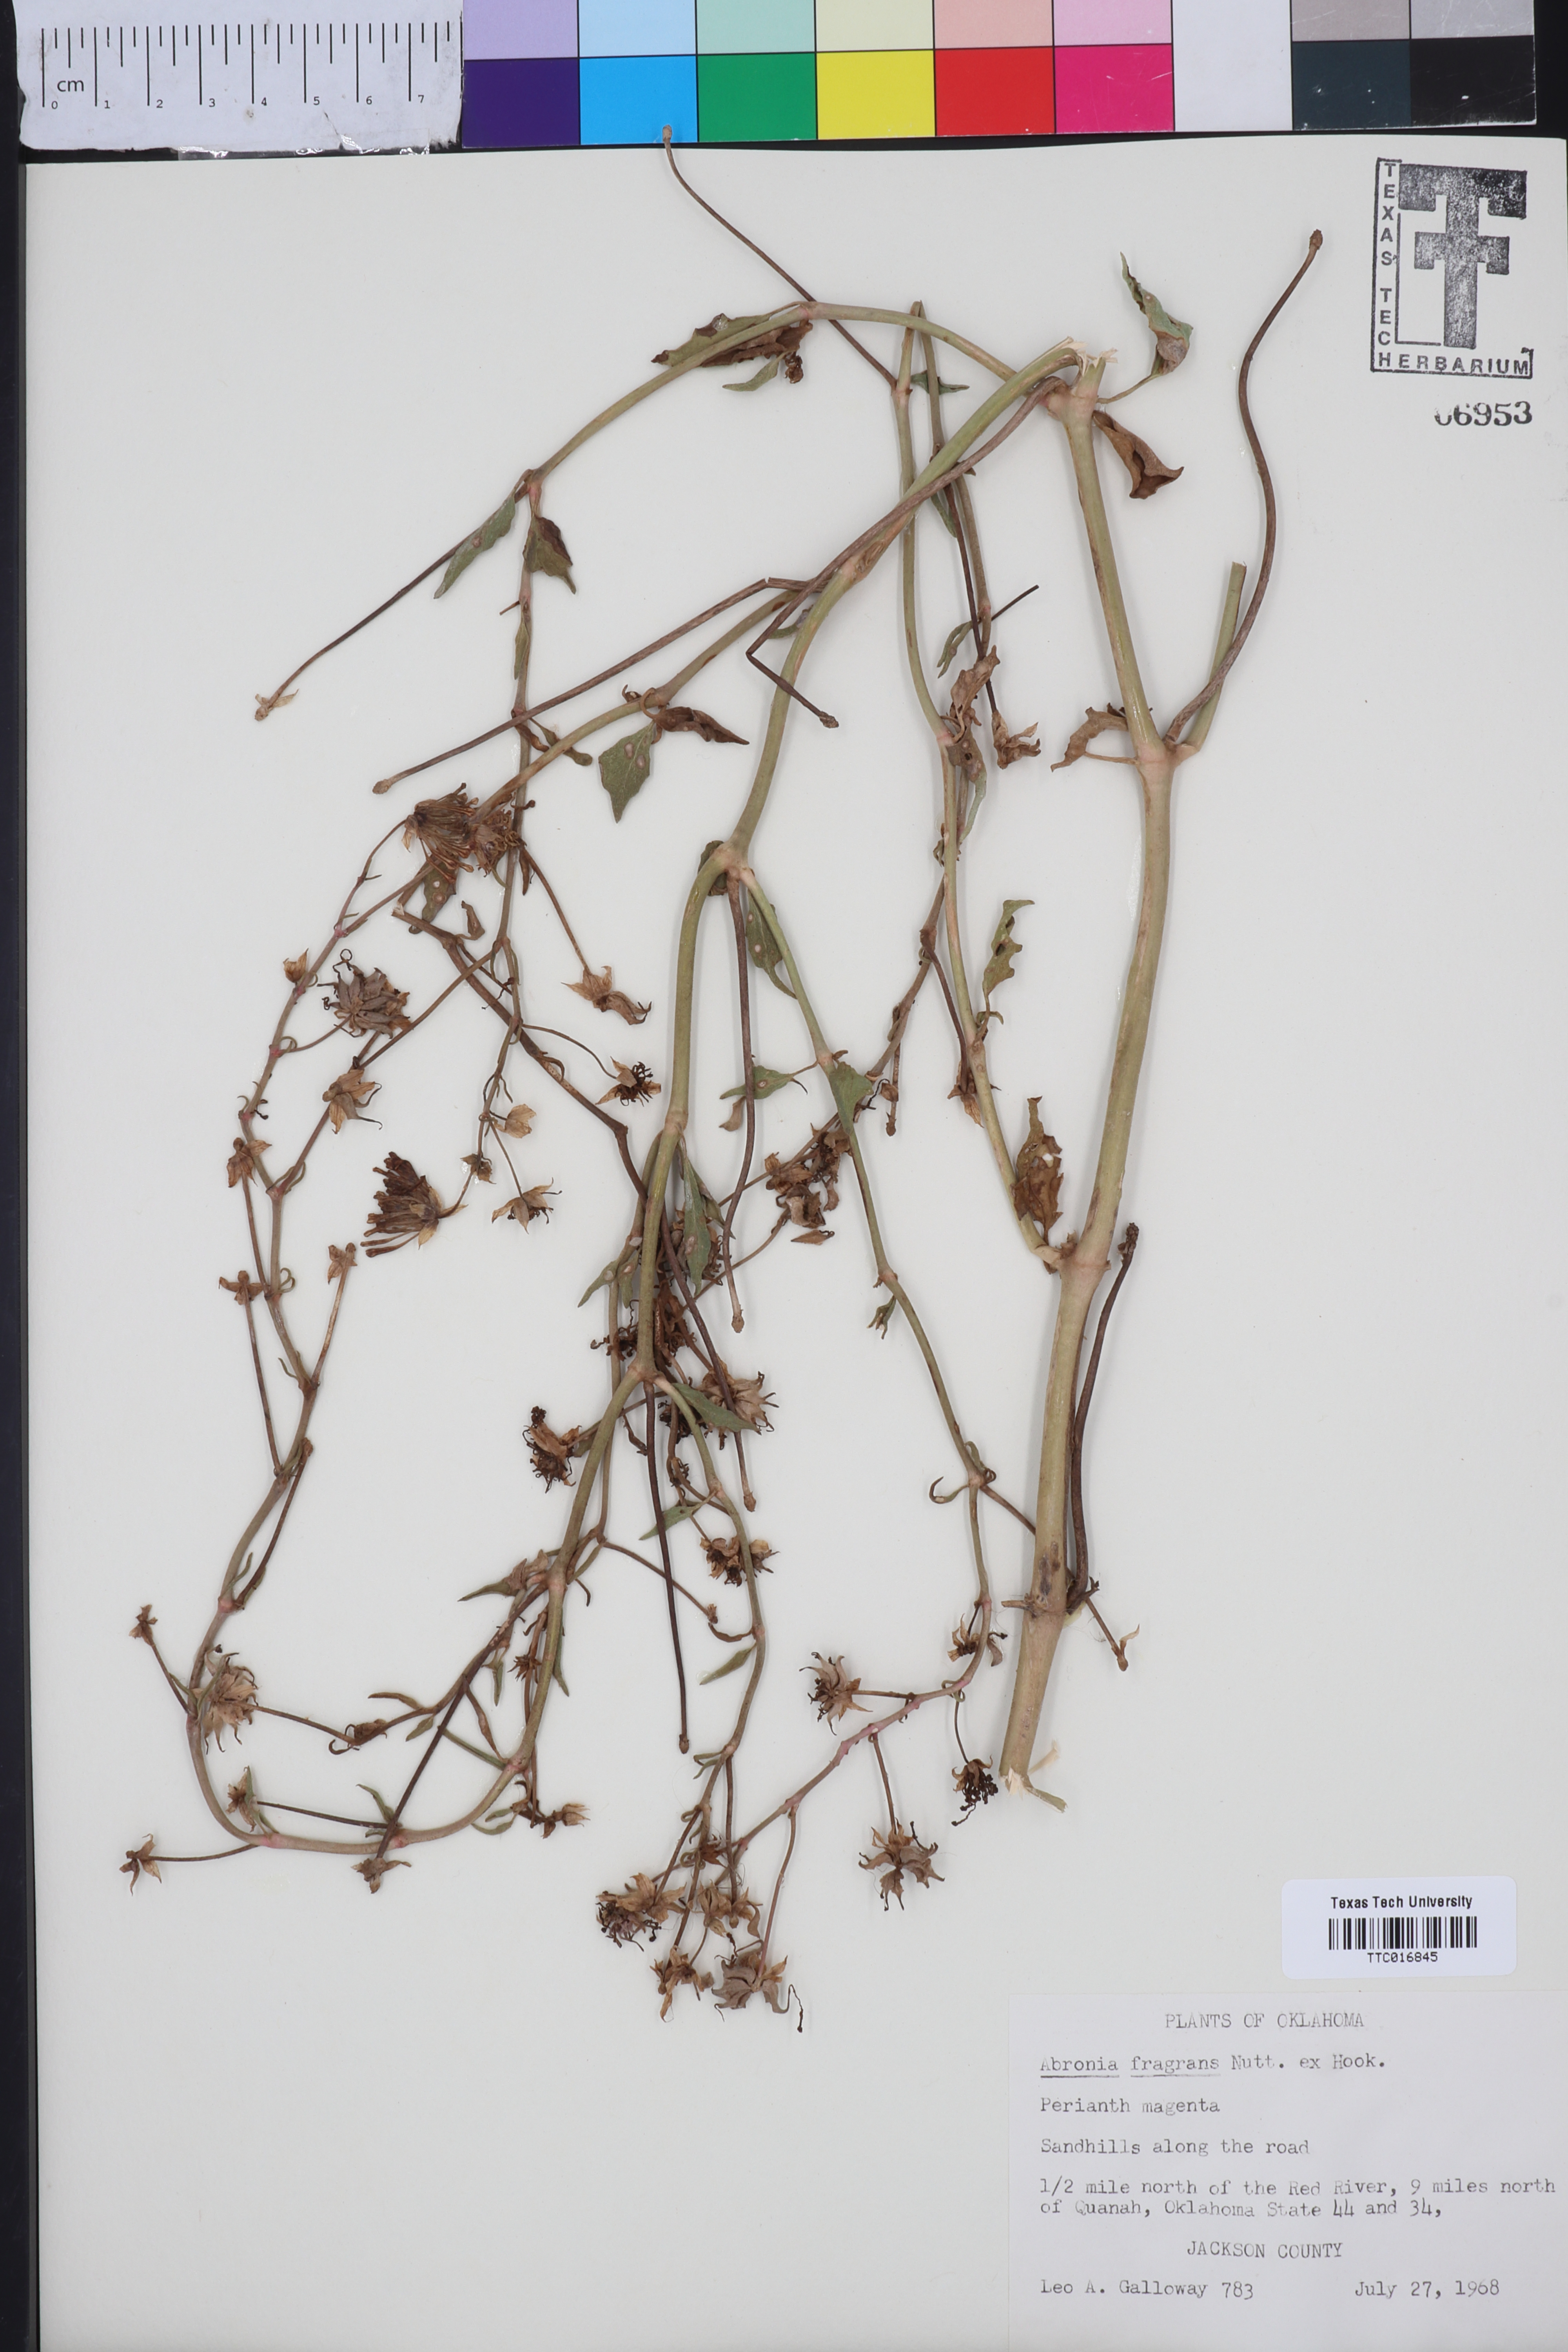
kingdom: Plantae
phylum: Tracheophyta
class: Magnoliopsida
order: Caryophyllales
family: Nyctaginaceae
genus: Abronia
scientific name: Abronia fragrans
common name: Fragrant sand-verbena
